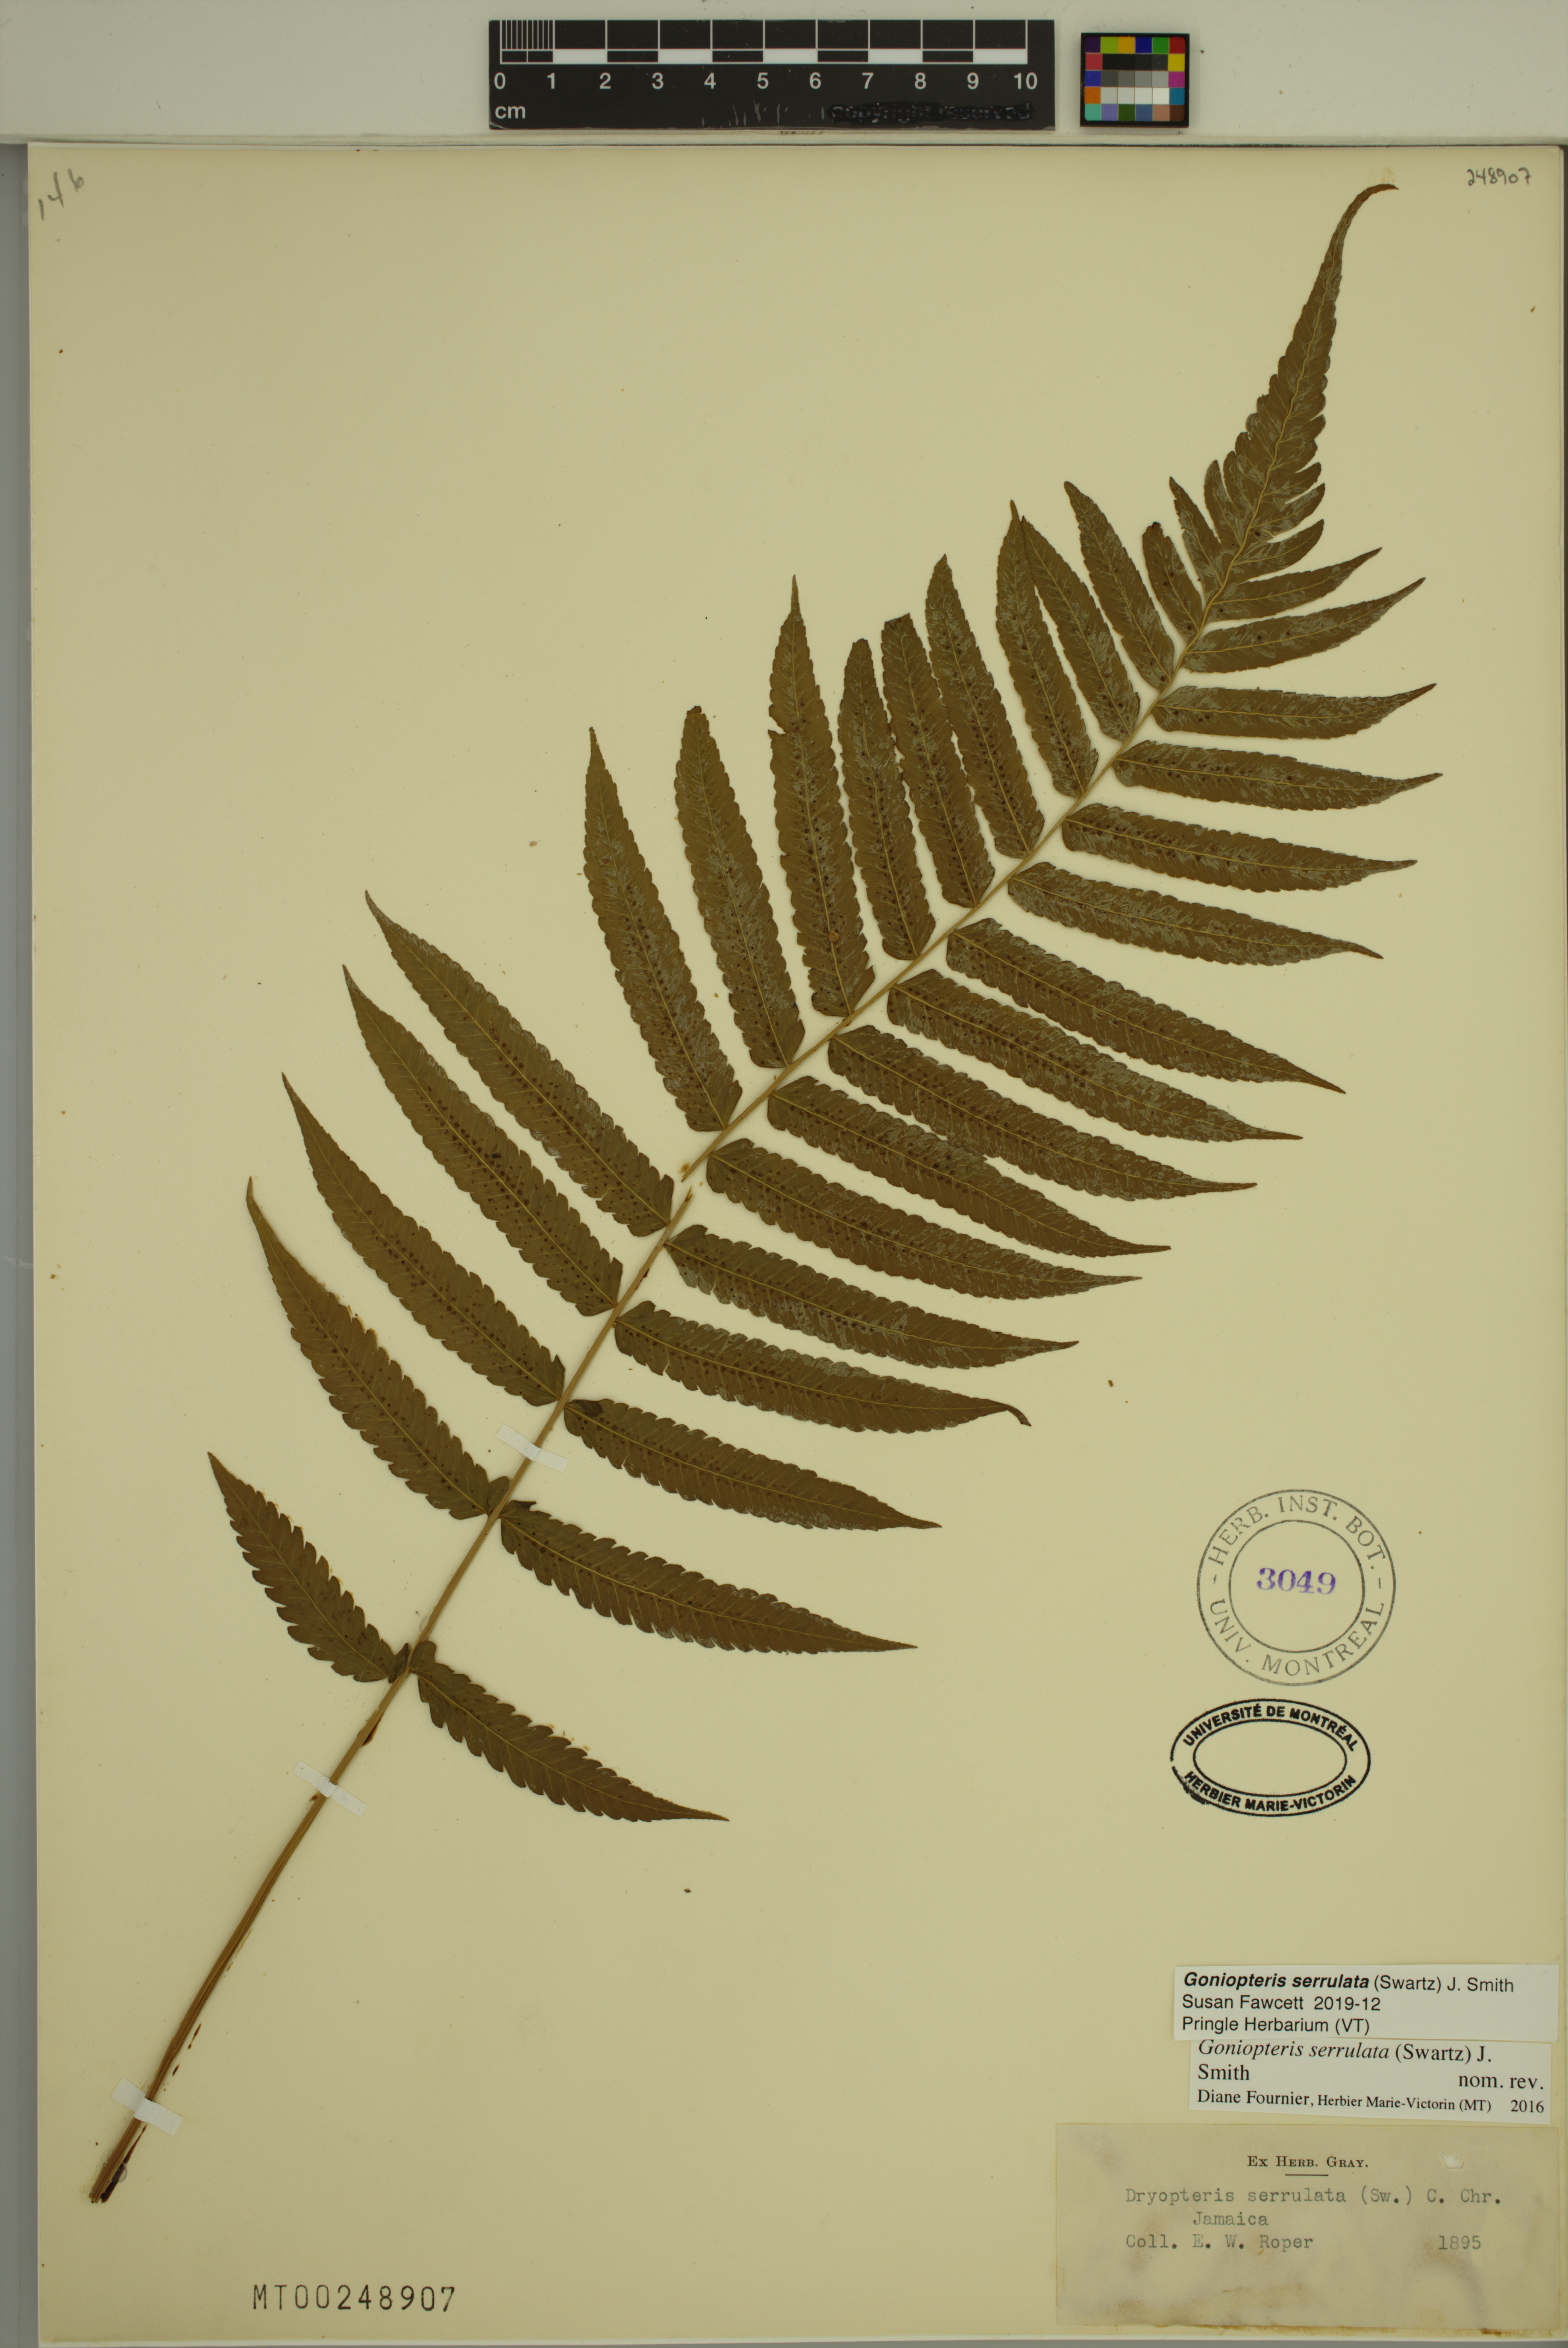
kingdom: Plantae
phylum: Tracheophyta
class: Polypodiopsida
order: Polypodiales
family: Thelypteridaceae
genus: Goniopteris
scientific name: Goniopteris serrulata
